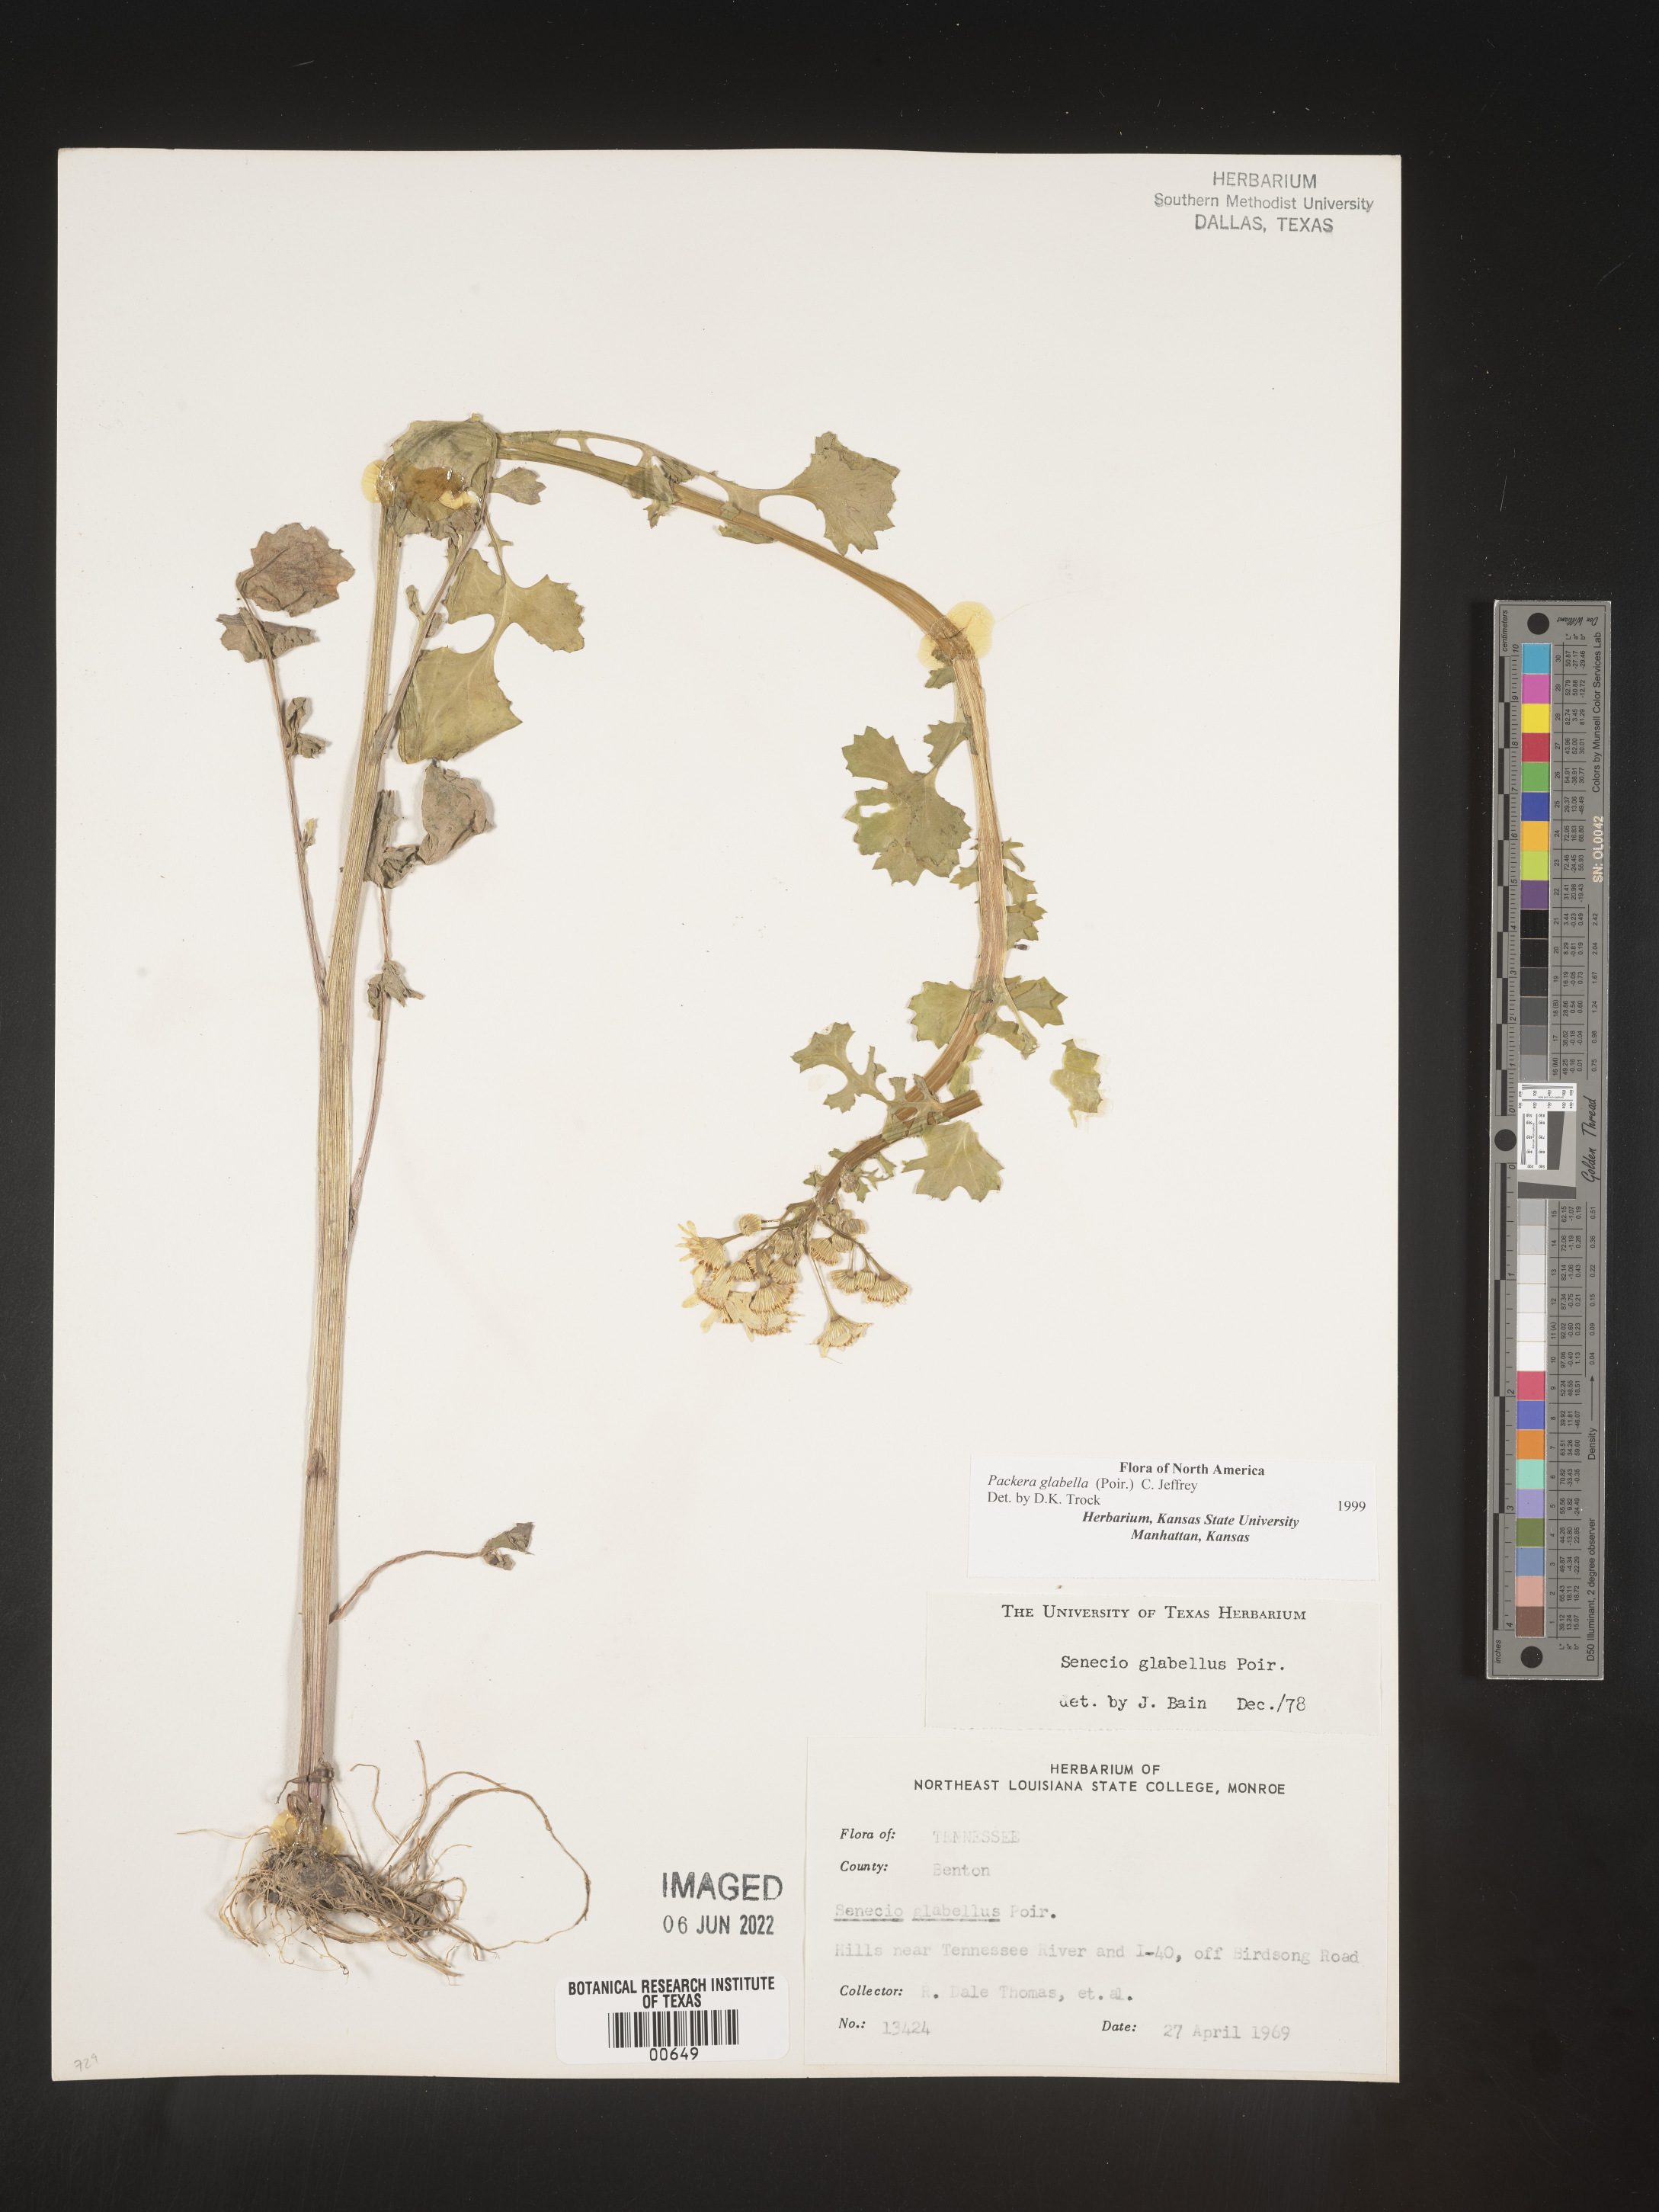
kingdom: Plantae
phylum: Tracheophyta
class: Magnoliopsida
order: Asterales
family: Asteraceae
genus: Packera
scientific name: Packera glabella
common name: Butterweed
